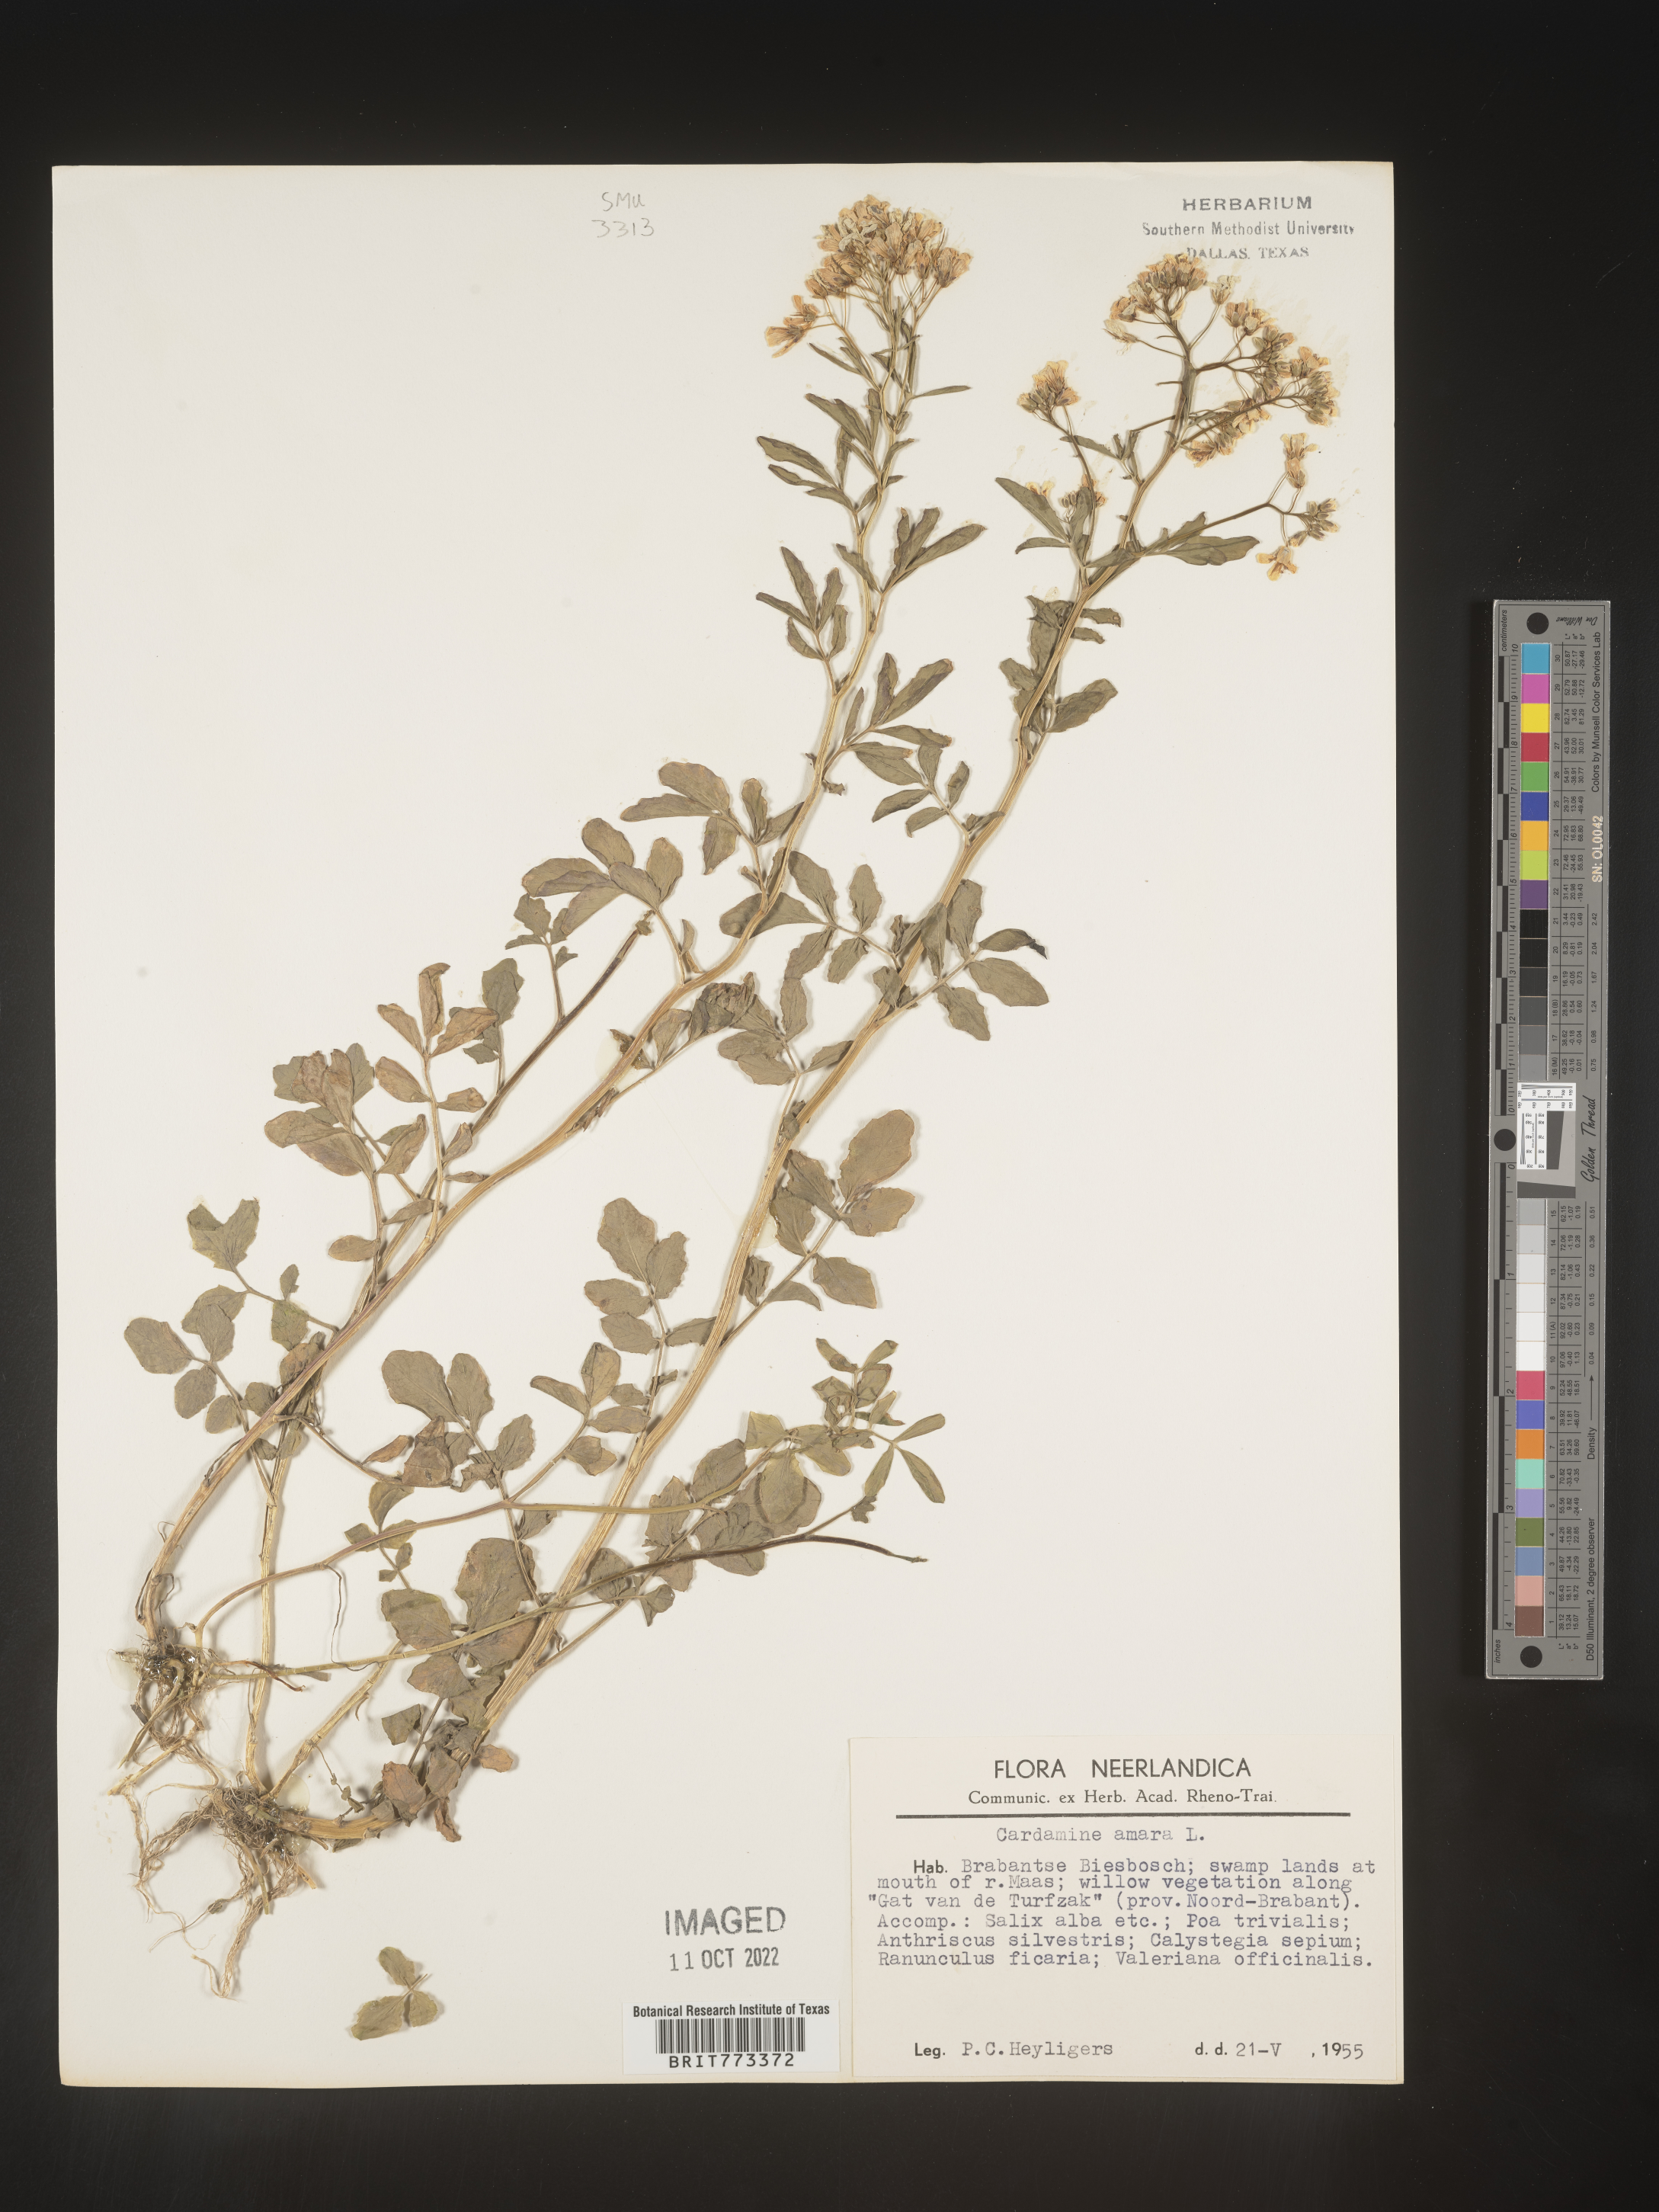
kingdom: Plantae
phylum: Tracheophyta
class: Magnoliopsida
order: Brassicales
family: Brassicaceae
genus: Cardamine
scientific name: Cardamine
